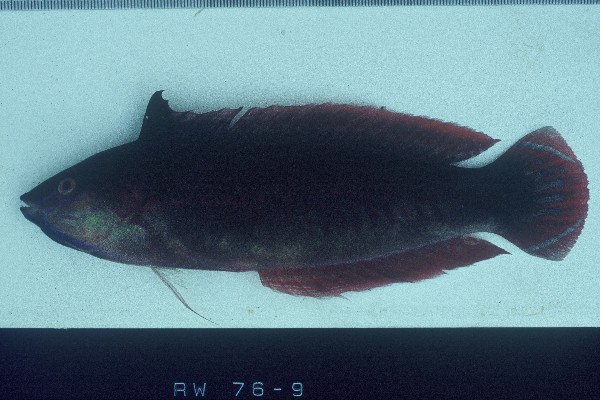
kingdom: Animalia
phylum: Chordata
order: Perciformes
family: Labridae
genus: Coris
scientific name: Coris caudimacula
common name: Spottail coris
